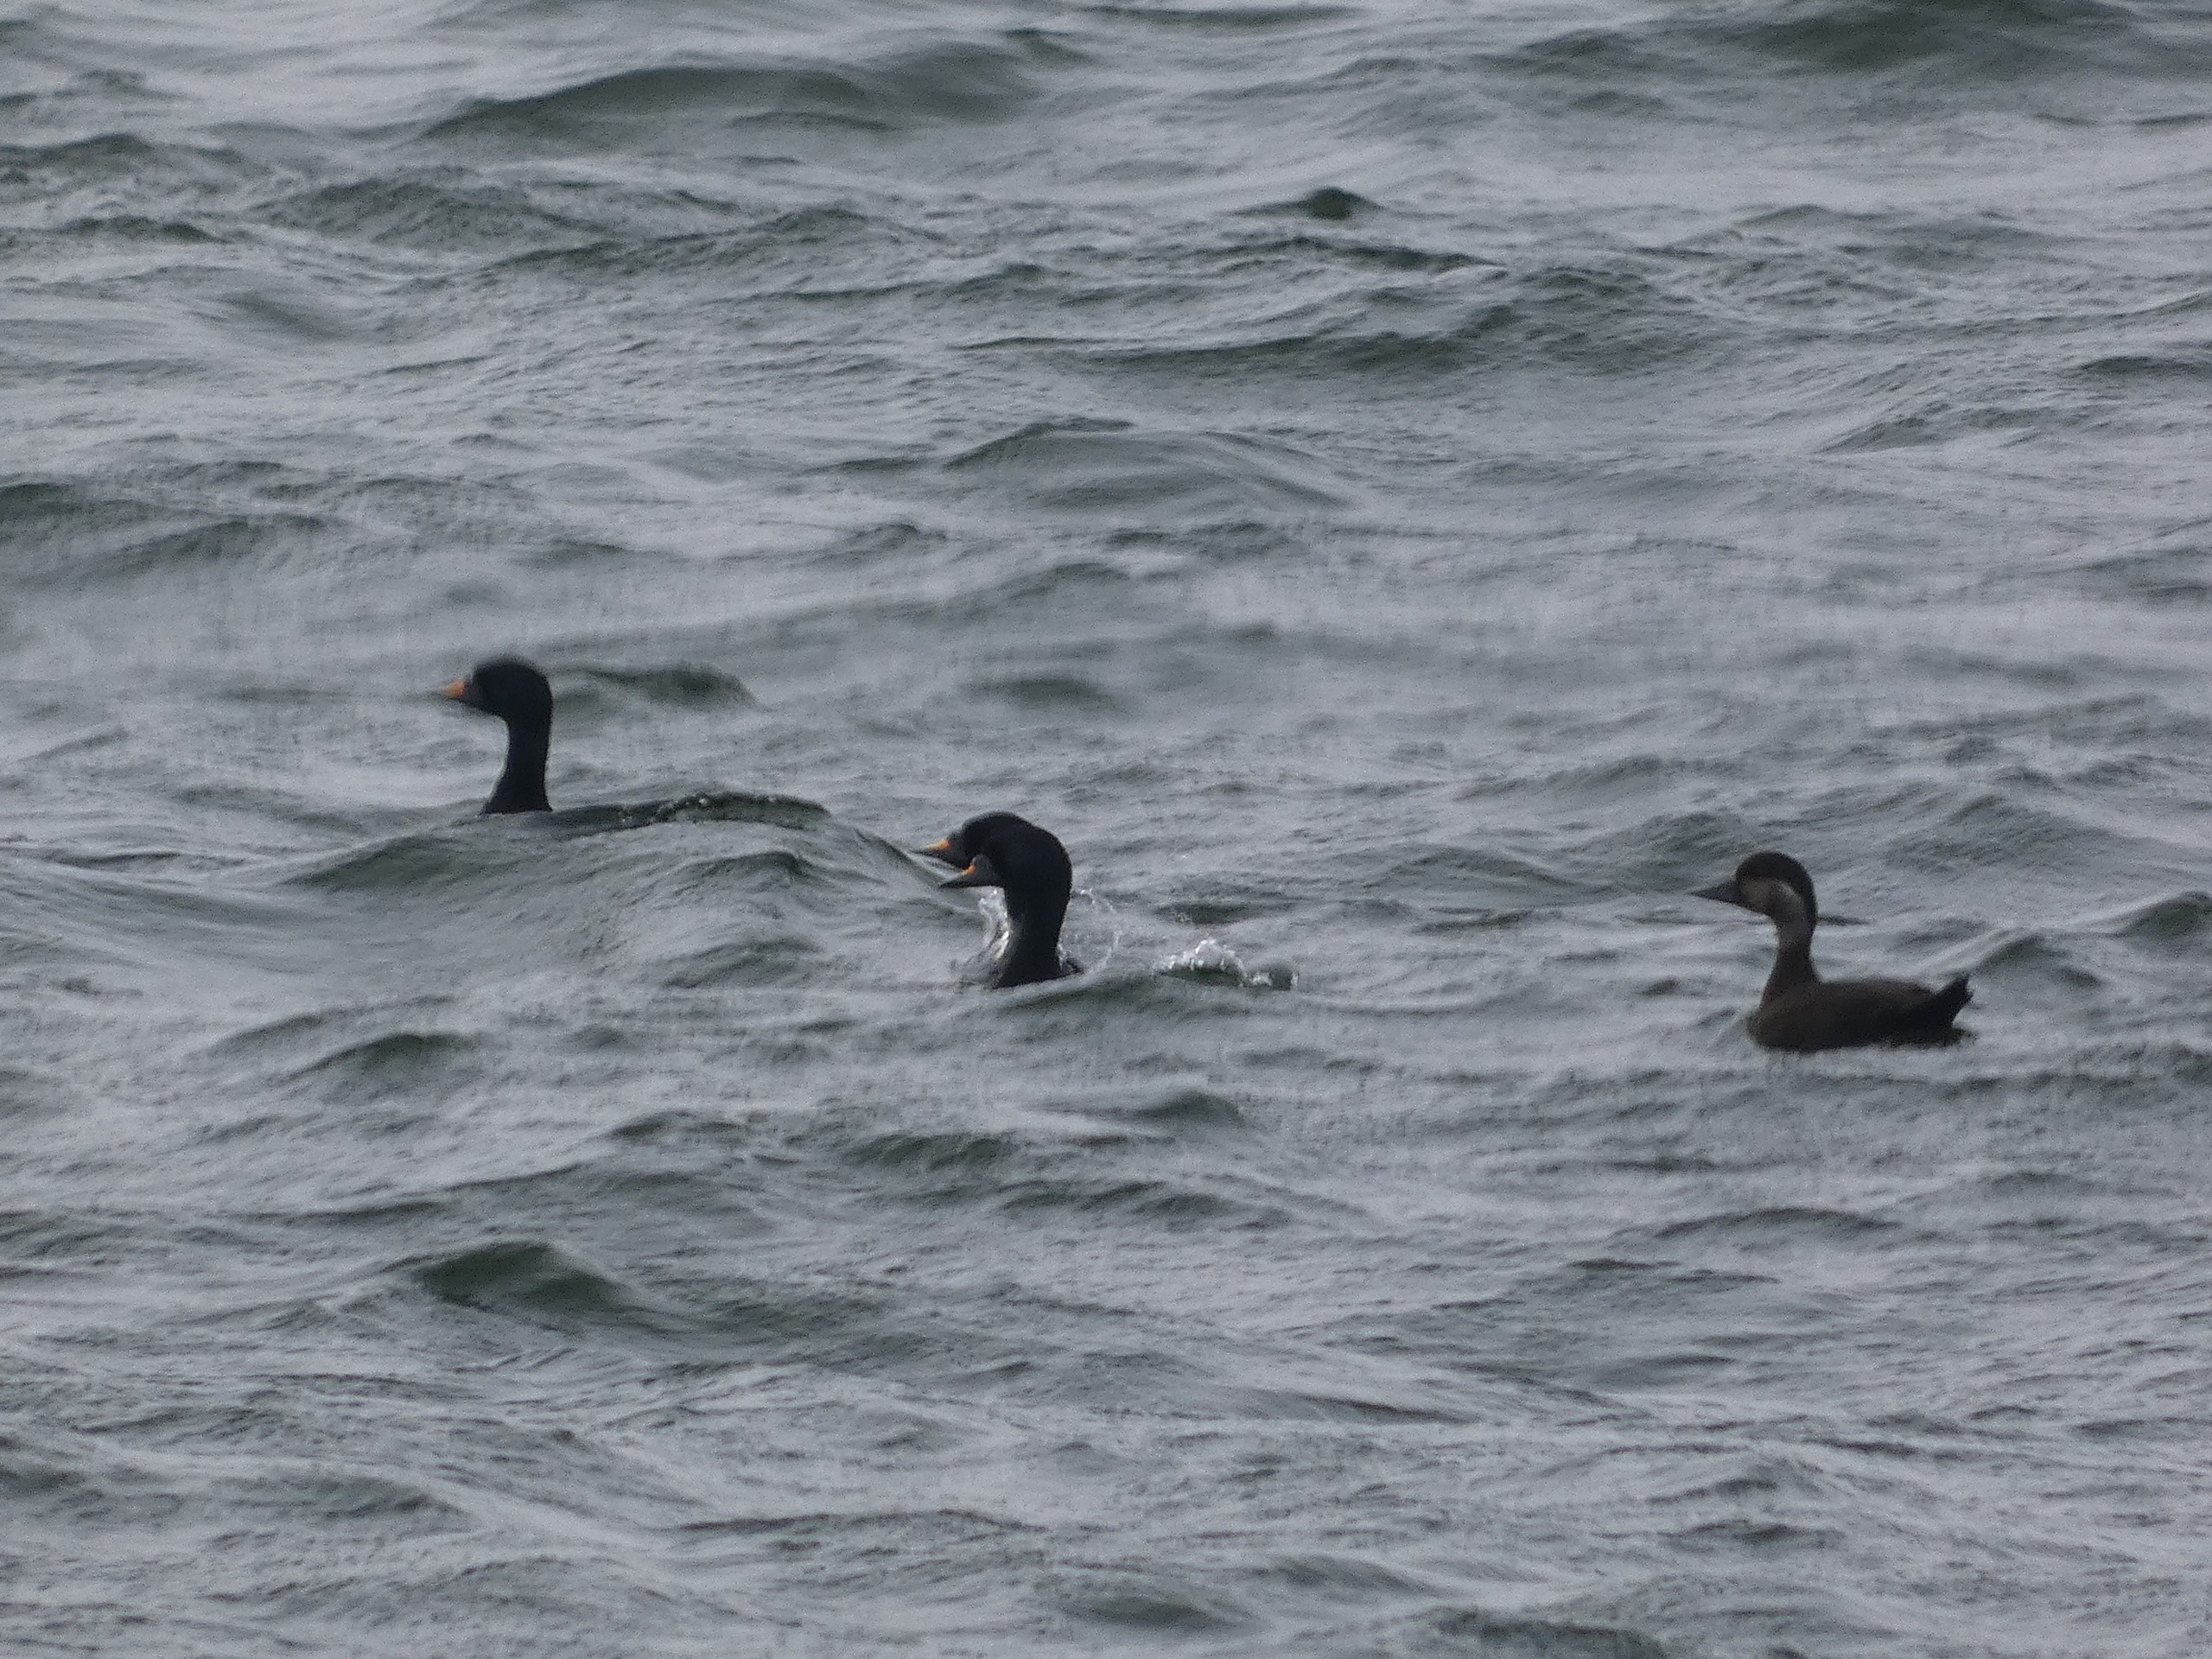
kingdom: Animalia
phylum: Chordata
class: Aves
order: Anseriformes
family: Anatidae
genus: Melanitta
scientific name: Melanitta nigra
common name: Sortand
